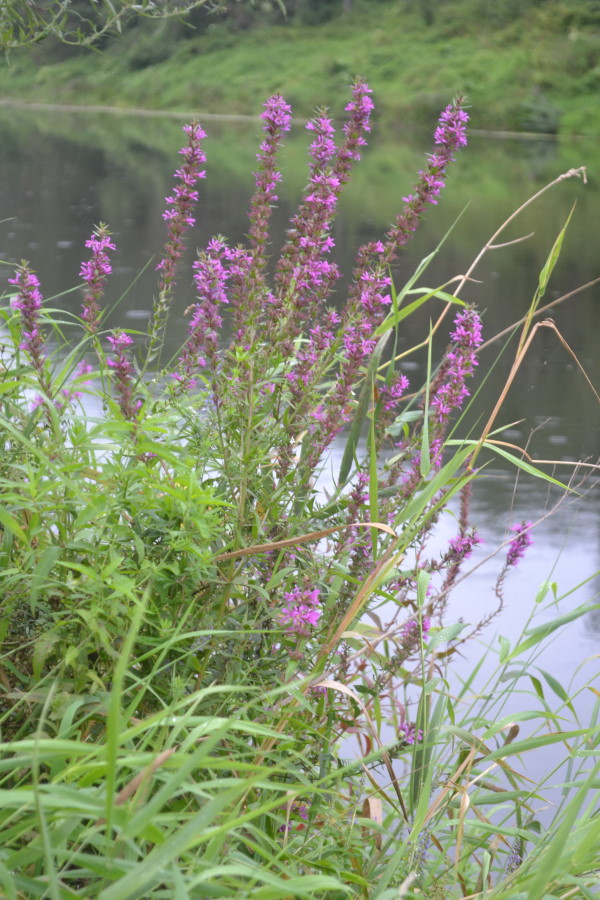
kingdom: Plantae
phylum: Tracheophyta
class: Magnoliopsida
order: Myrtales
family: Lythraceae
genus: Lythrum
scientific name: Lythrum salicaria
